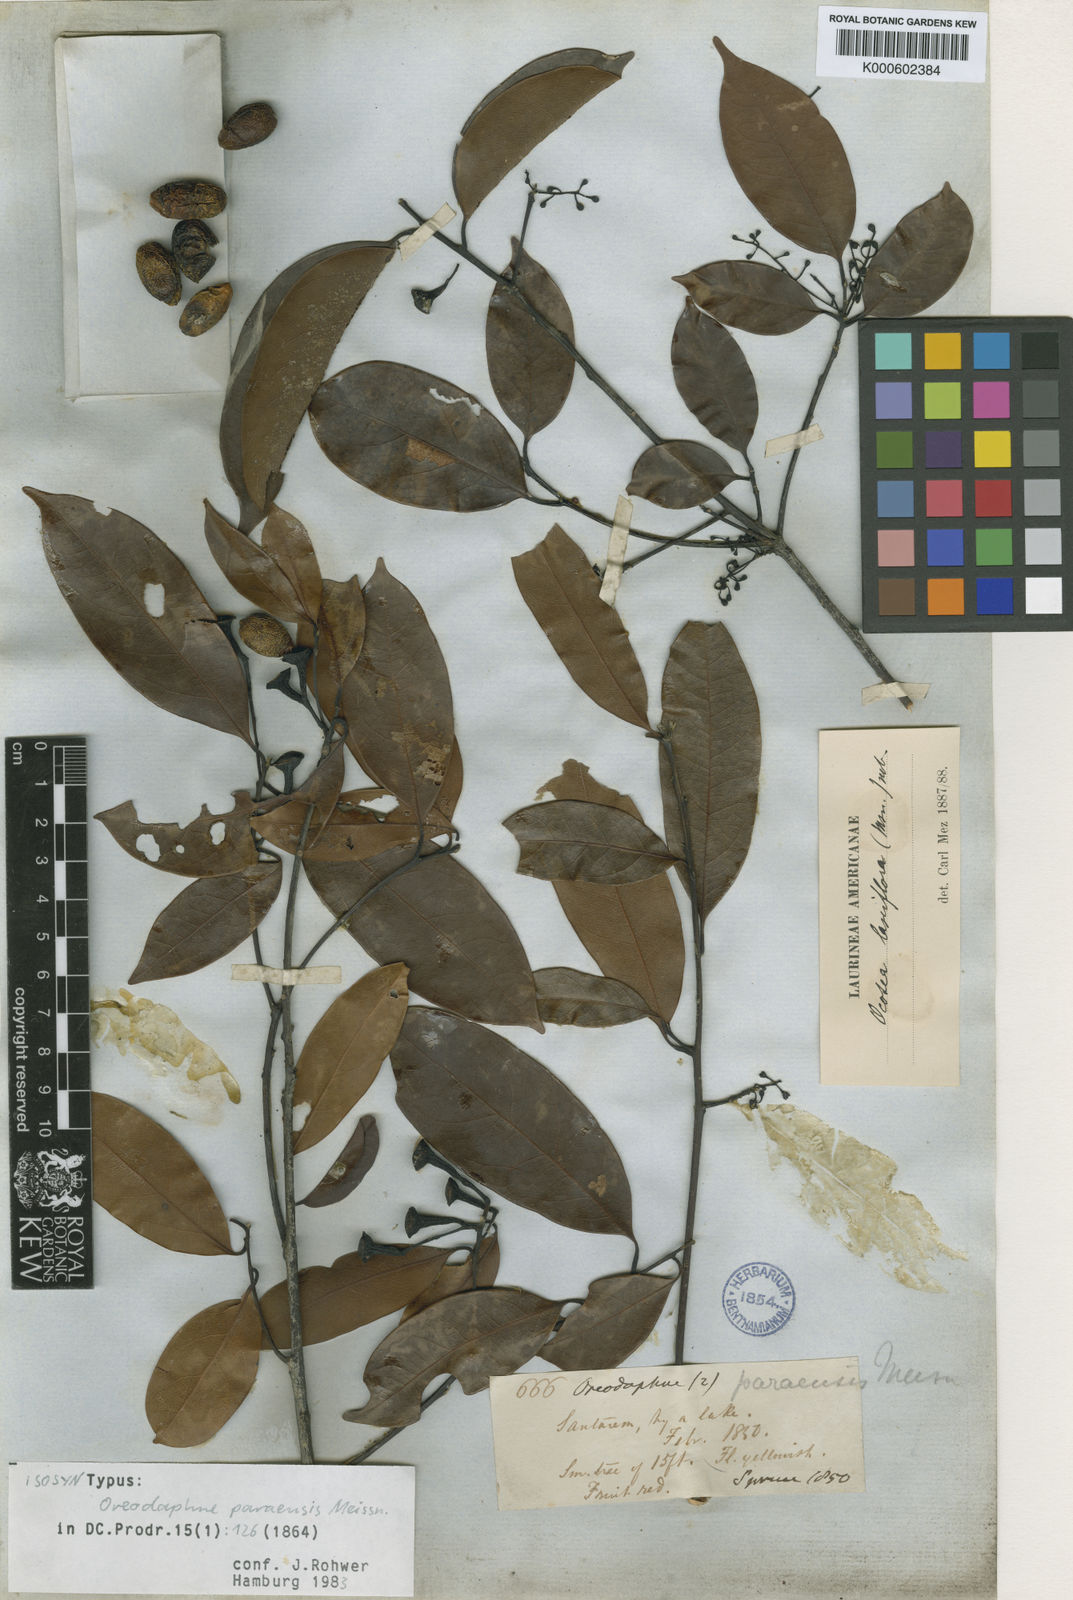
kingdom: Plantae
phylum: Tracheophyta
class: Magnoliopsida
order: Laurales
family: Lauraceae
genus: Ocotea
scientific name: Ocotea puberula
